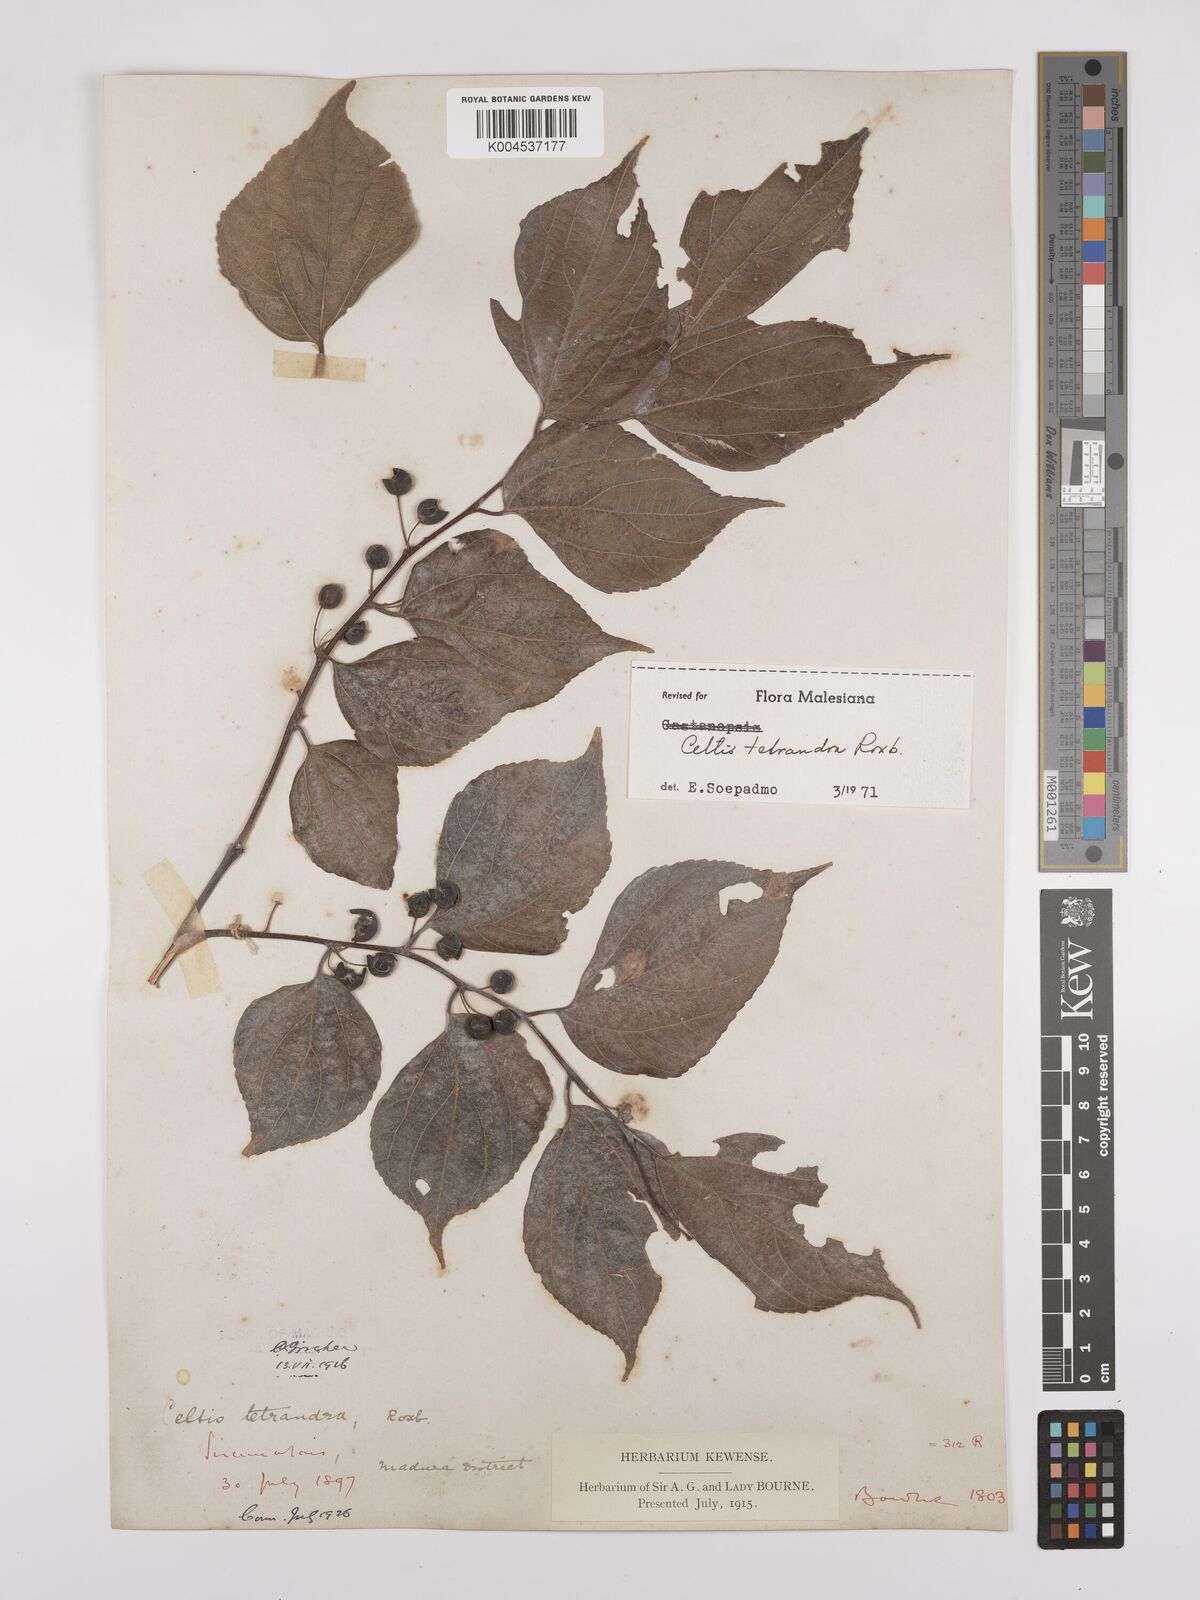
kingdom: Plantae
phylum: Tracheophyta
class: Magnoliopsida
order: Rosales
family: Cannabaceae
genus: Celtis
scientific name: Celtis tetrandra
